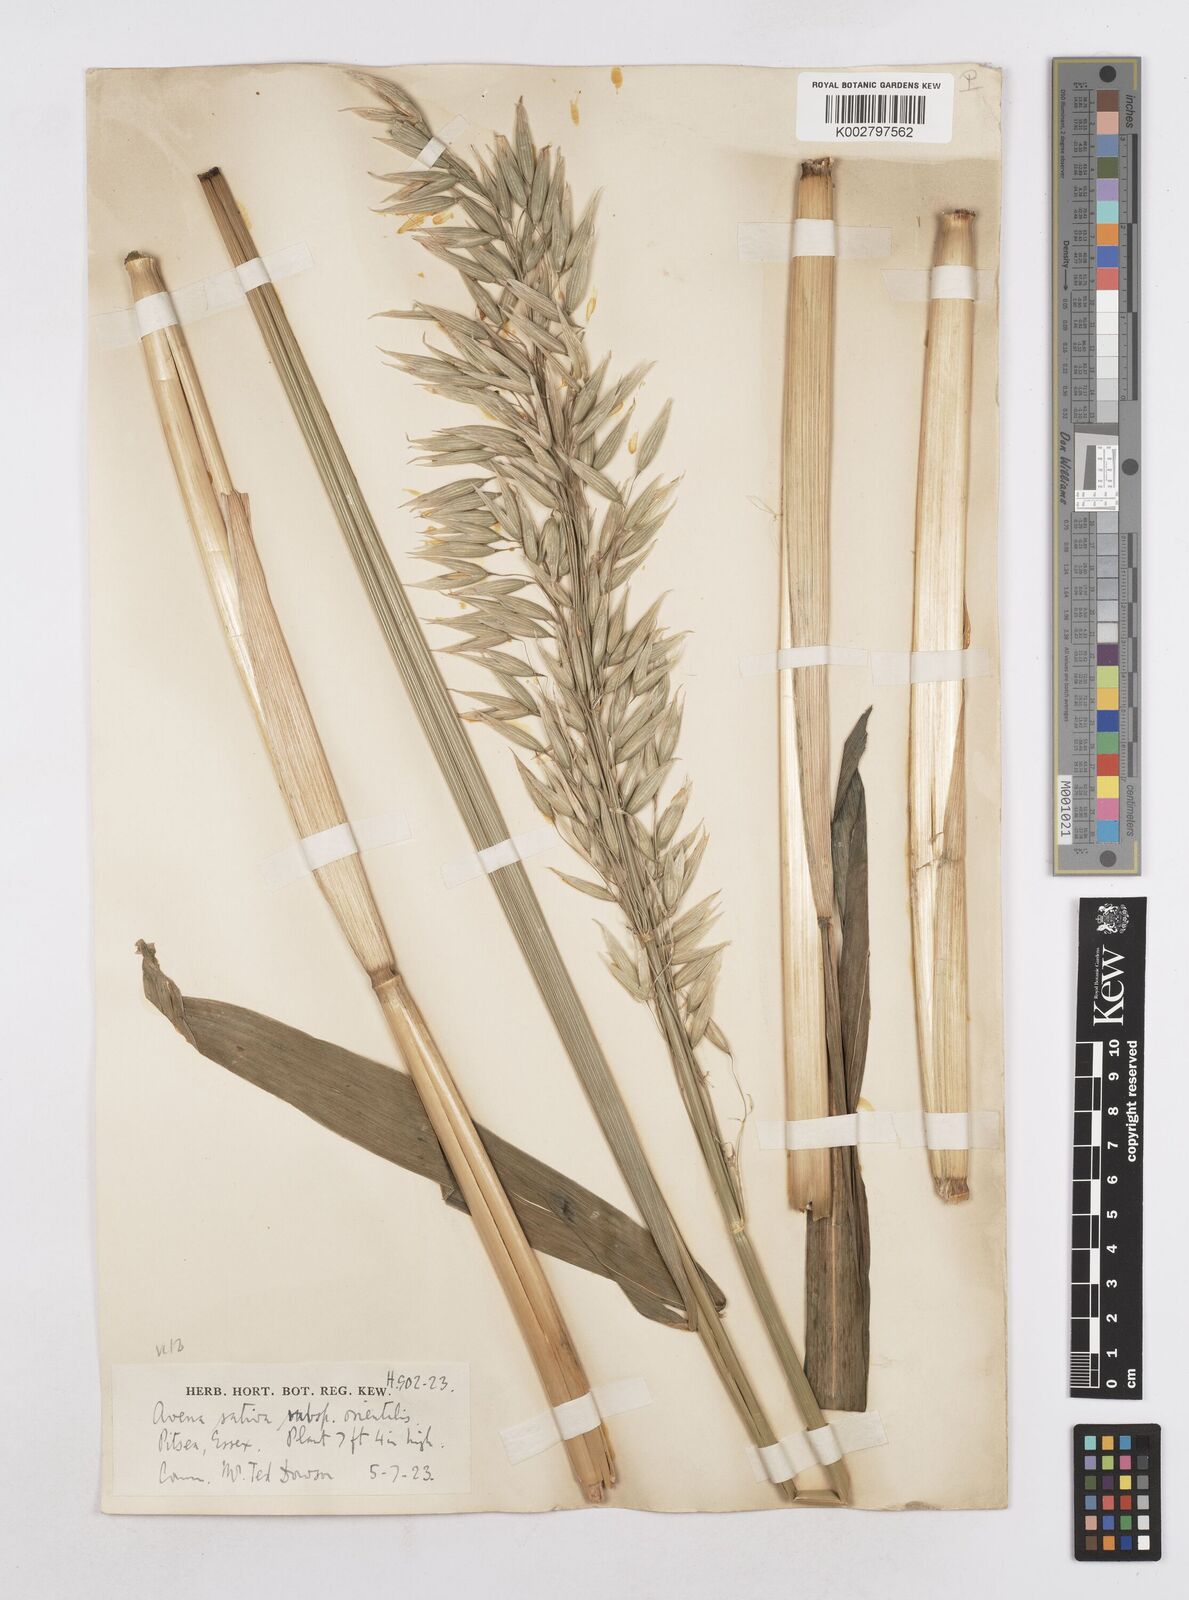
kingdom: Plantae
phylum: Tracheophyta
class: Liliopsida
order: Poales
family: Poaceae
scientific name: Poaceae
